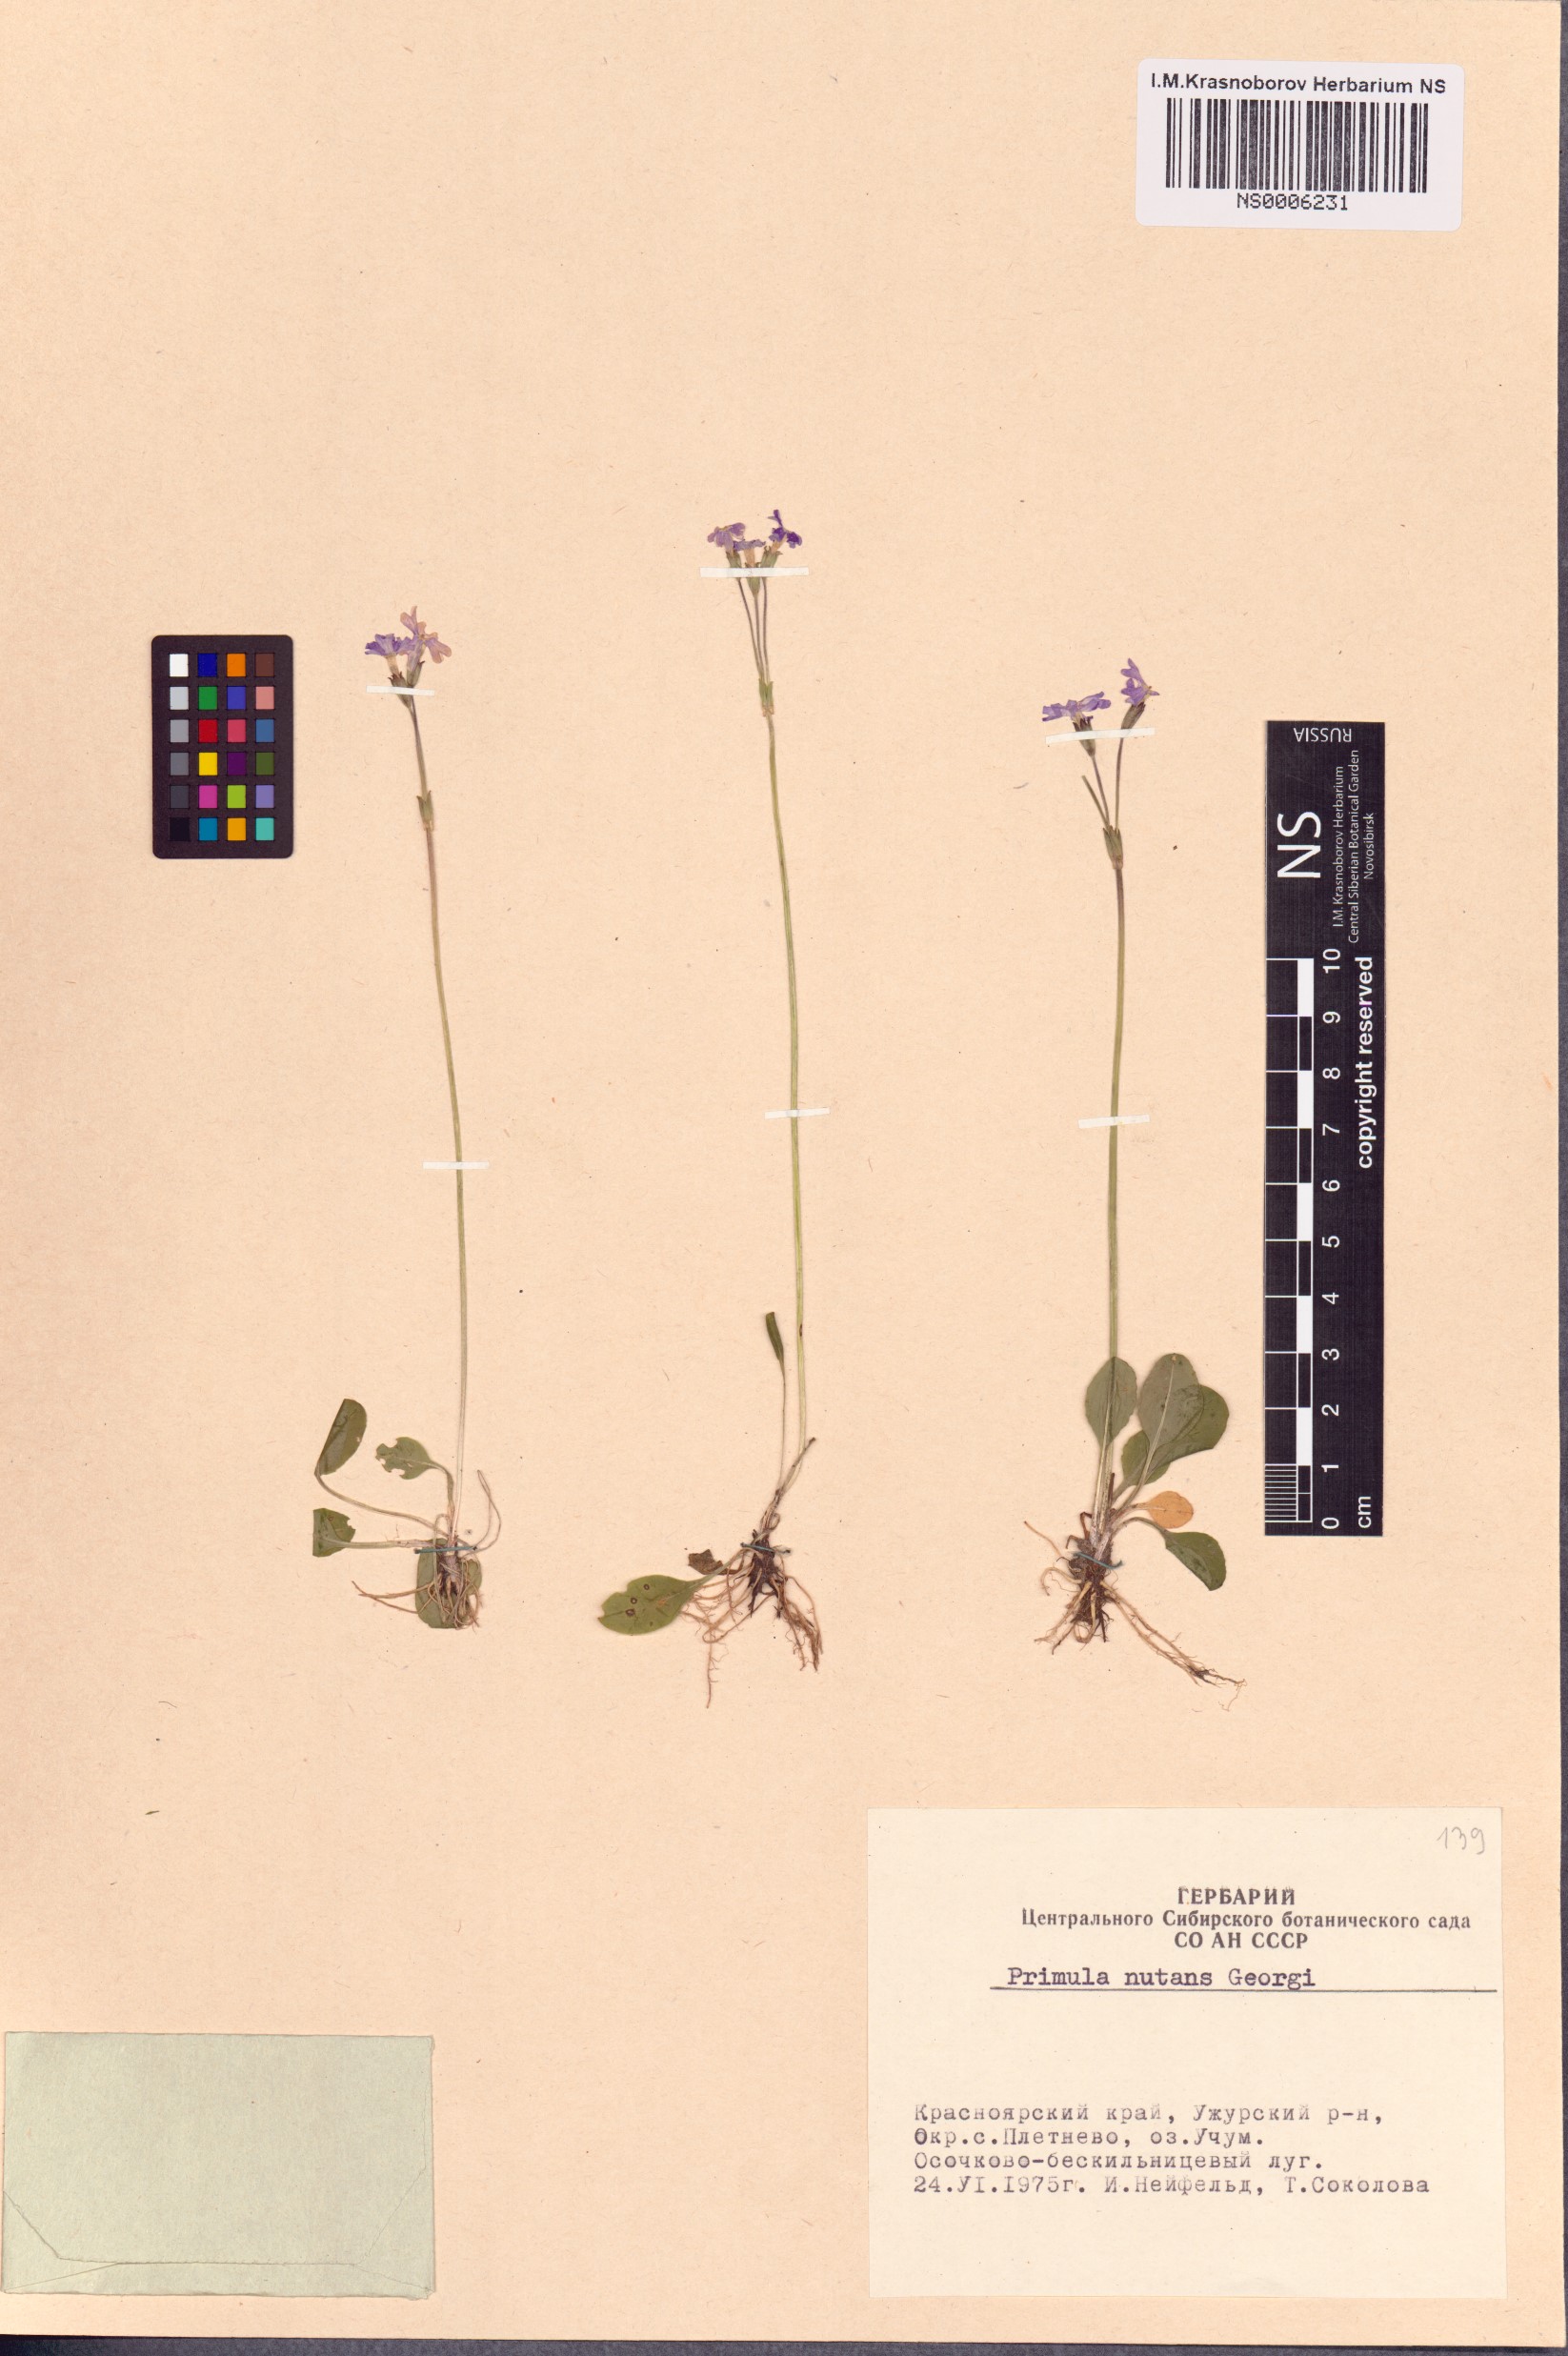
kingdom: Plantae
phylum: Tracheophyta
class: Magnoliopsida
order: Ericales
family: Primulaceae
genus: Primula
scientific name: Primula nutans
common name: Siberian primrose
